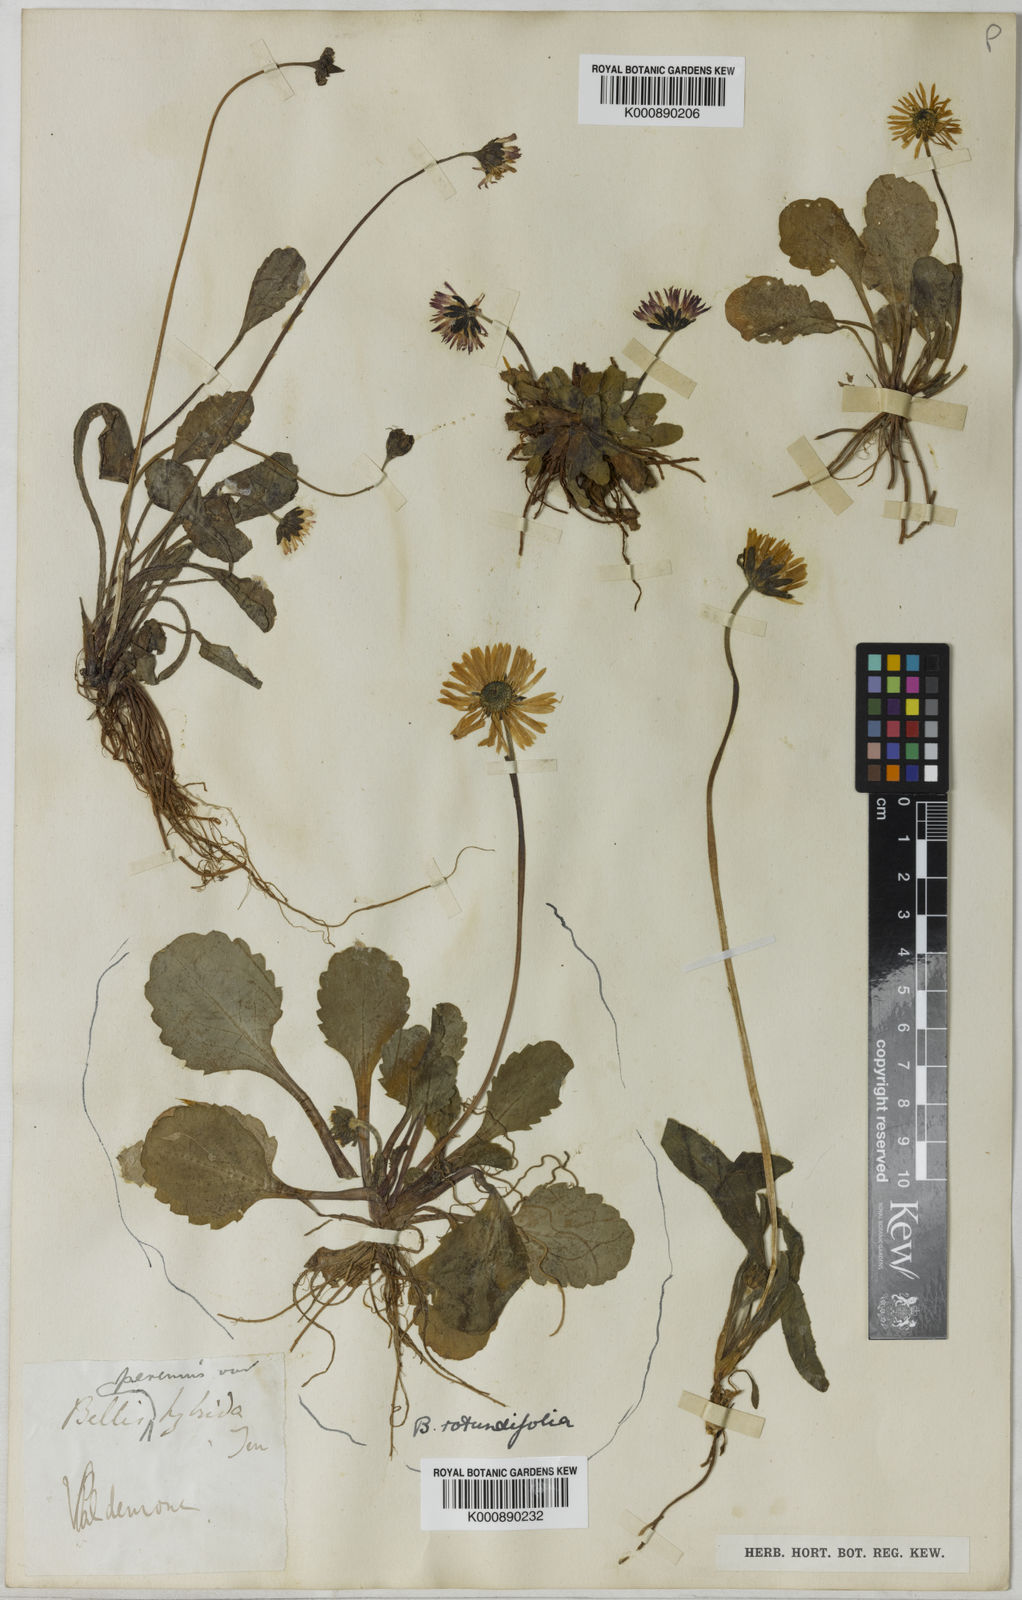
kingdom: Plantae
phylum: Tracheophyta
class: Magnoliopsida
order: Asterales
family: Asteraceae
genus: Bellis
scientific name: Bellis perennis
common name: Lawndaisy
